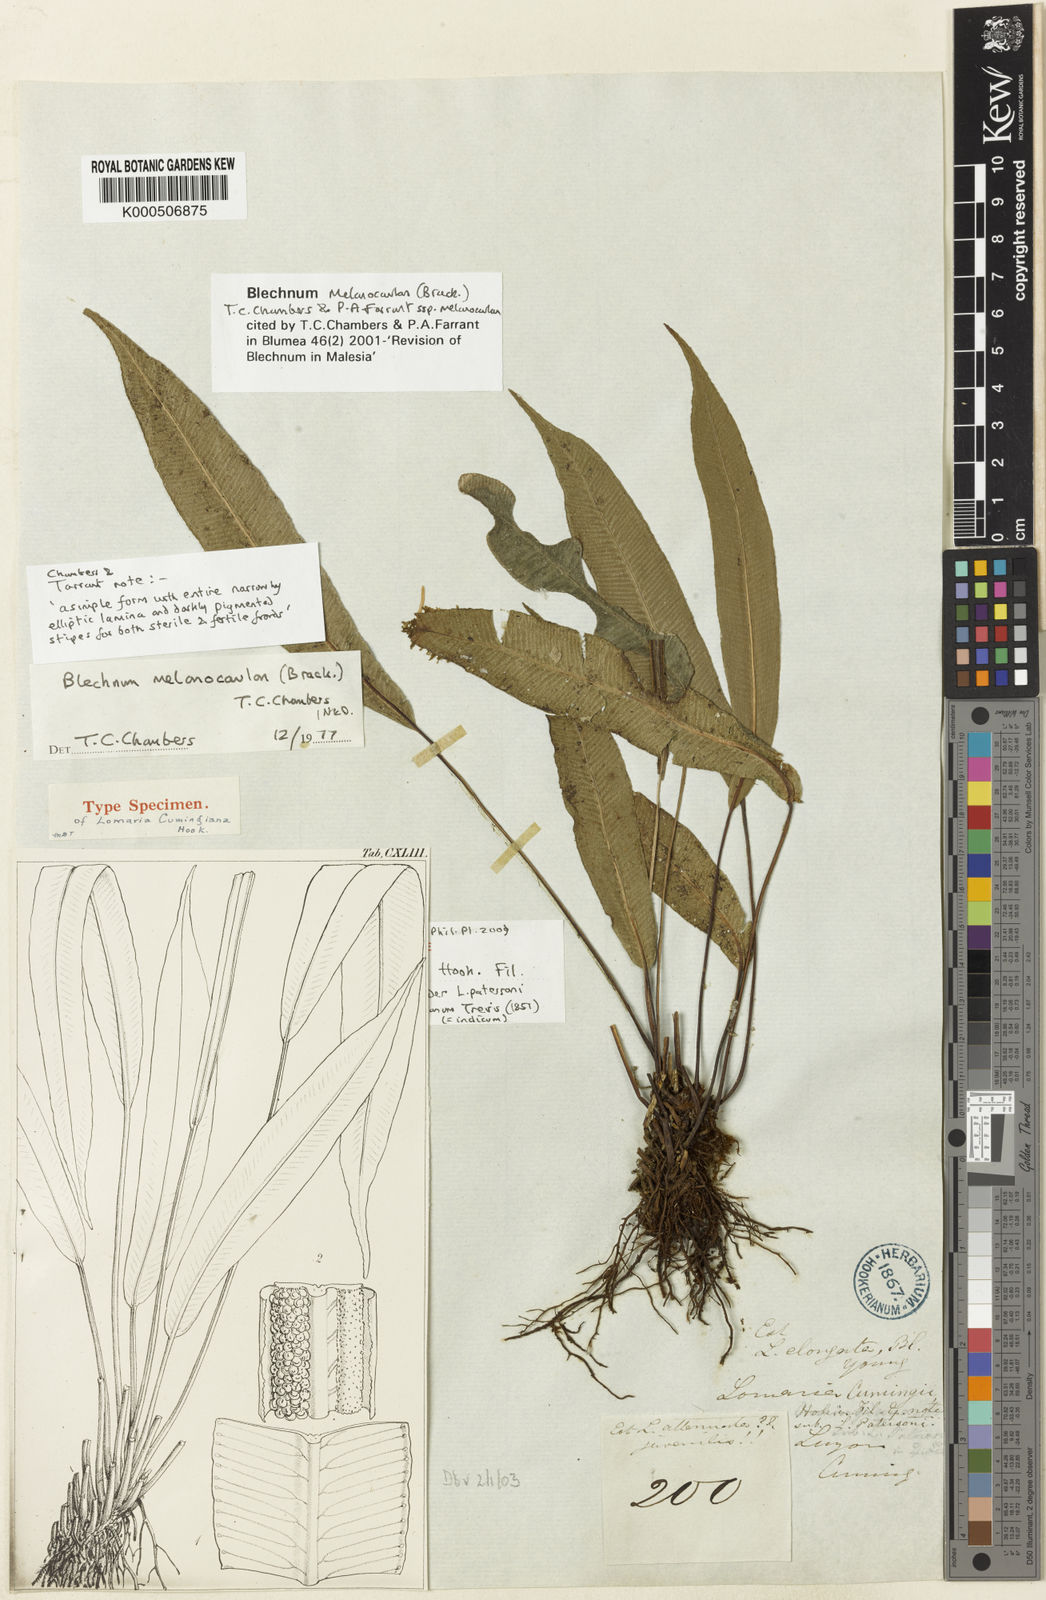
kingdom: Plantae
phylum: Tracheophyta
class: Polypodiopsida
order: Polypodiales
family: Blechnaceae
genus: Stenochlaena
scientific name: Stenochlaena
